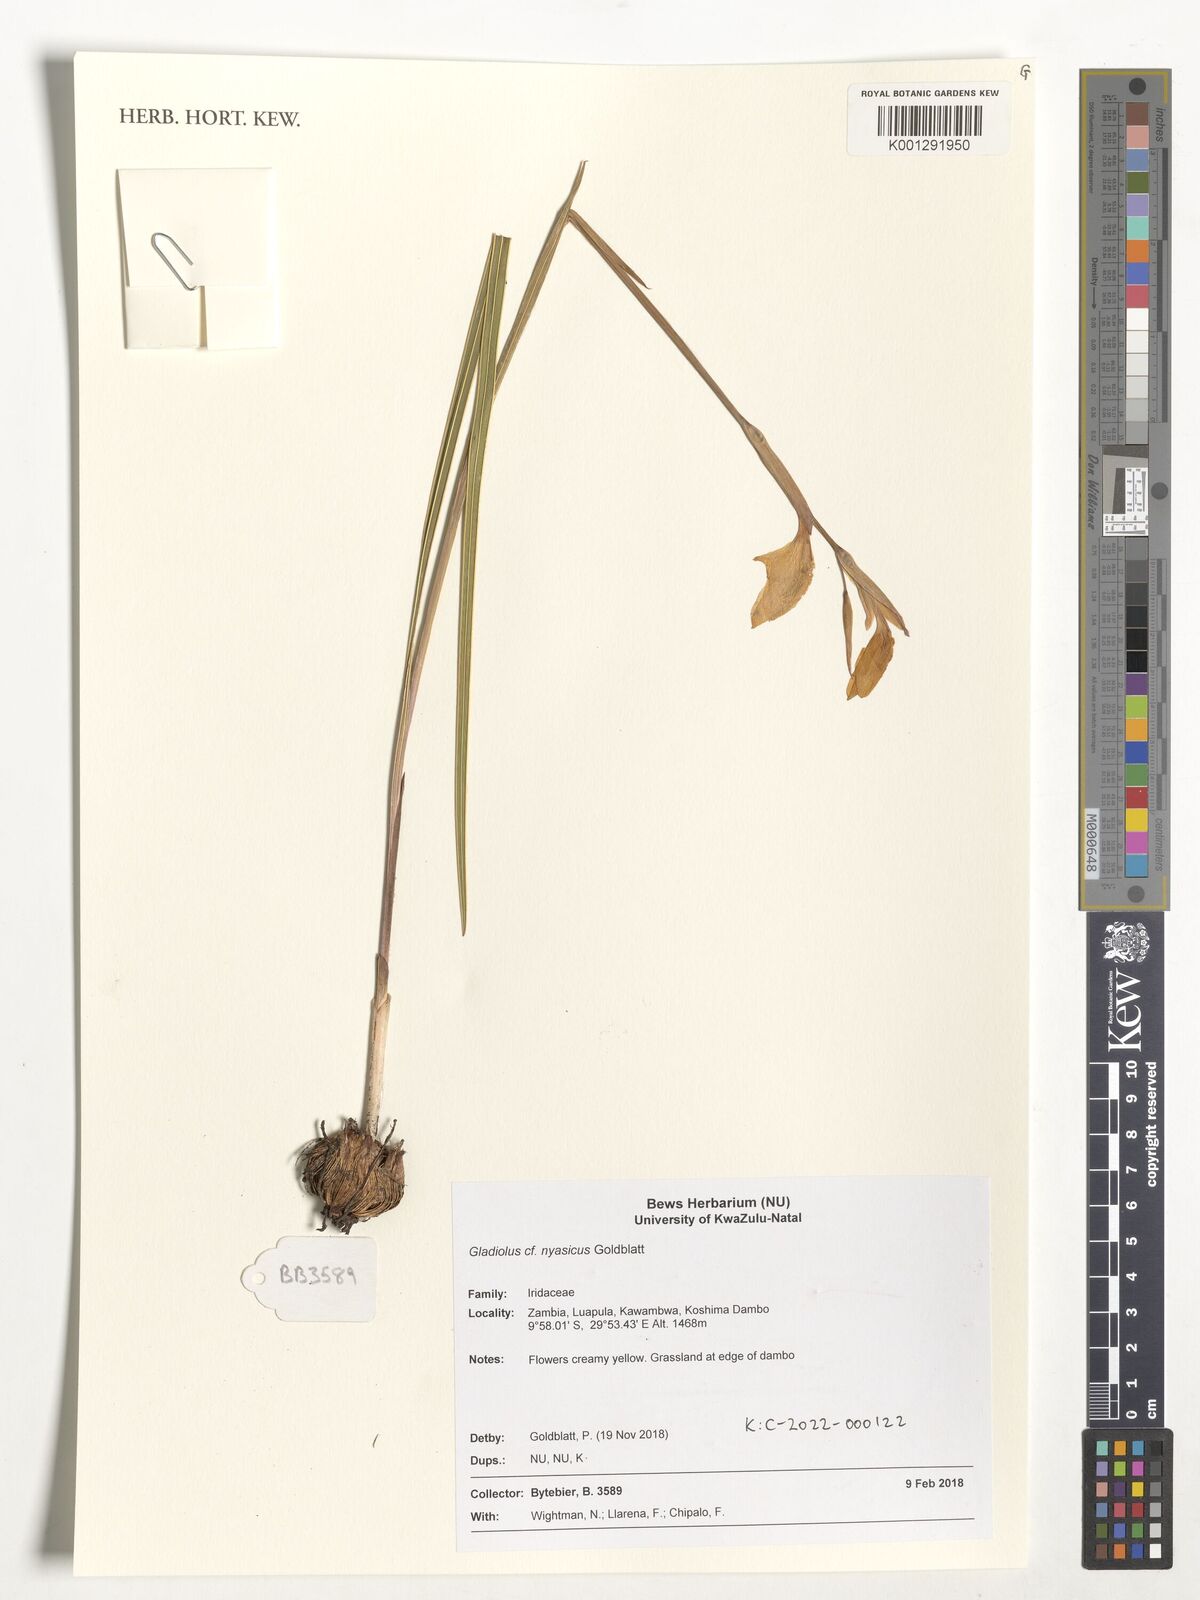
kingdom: Plantae
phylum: Tracheophyta
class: Liliopsida
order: Asparagales
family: Iridaceae
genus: Gladiolus
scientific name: Gladiolus nyasicus
